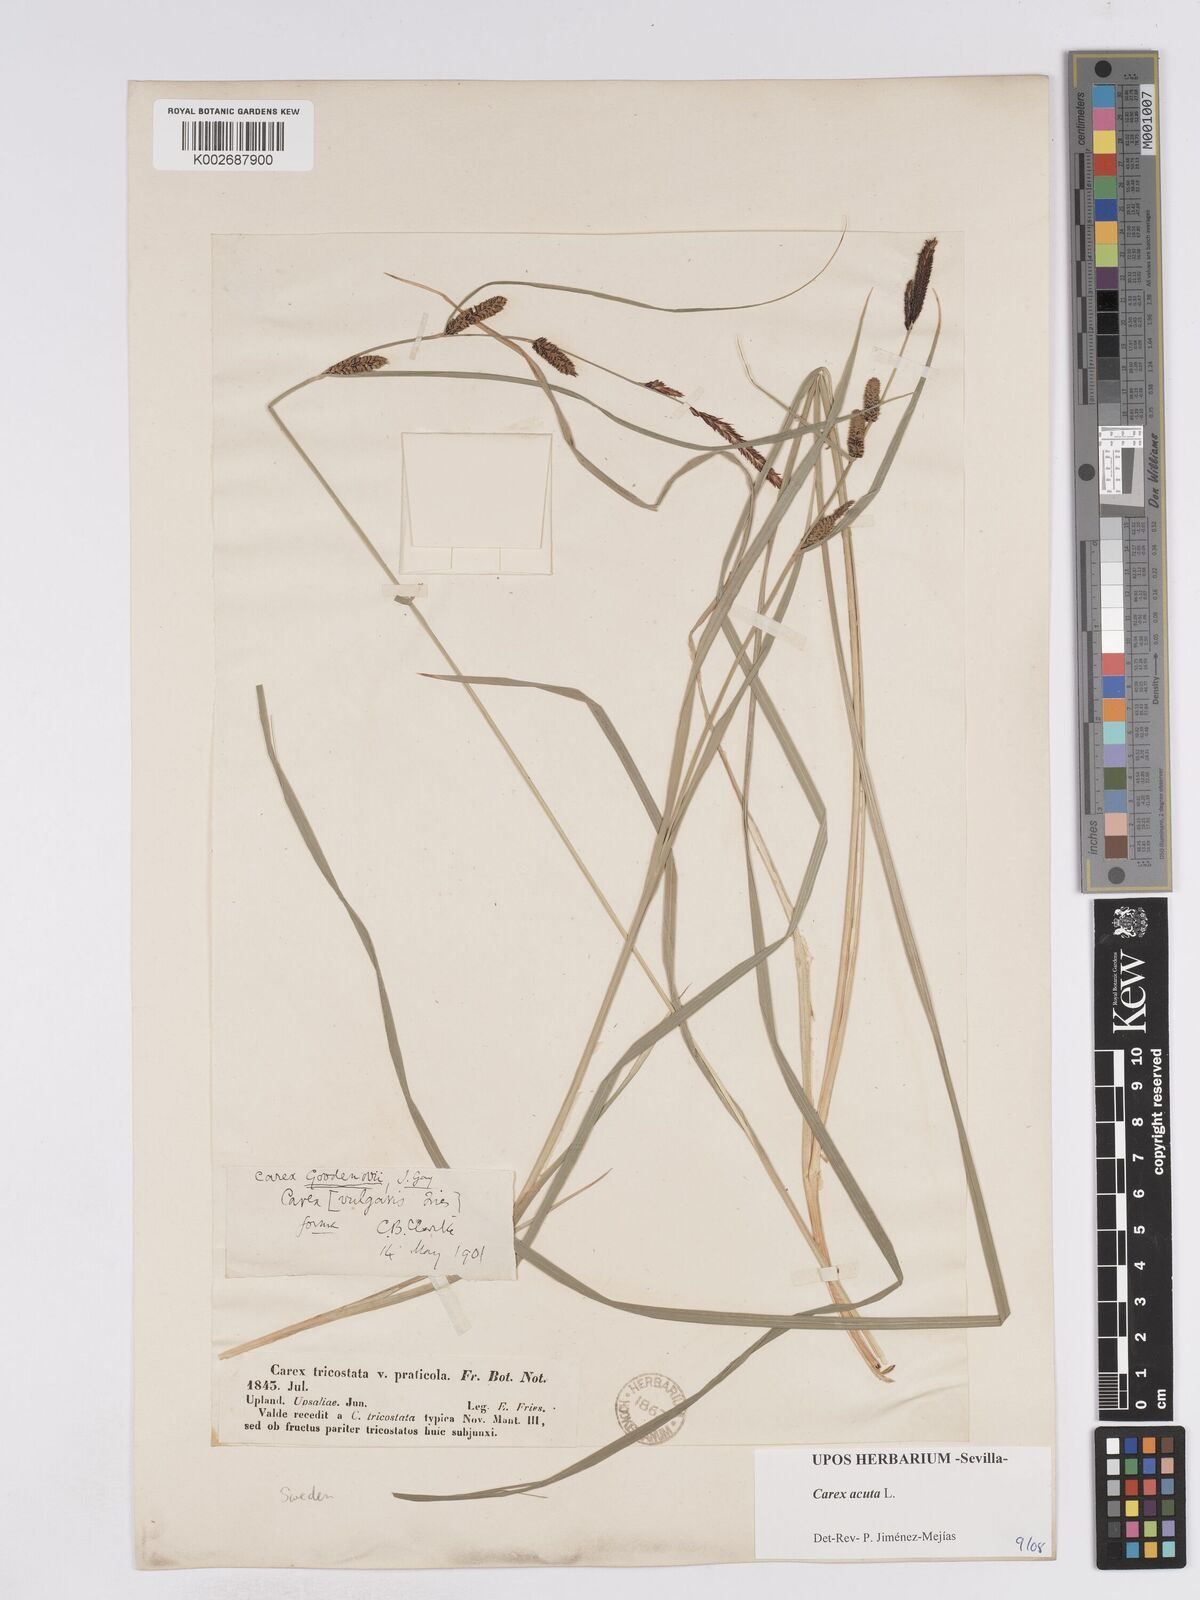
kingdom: Plantae
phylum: Tracheophyta
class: Liliopsida
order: Poales
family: Cyperaceae
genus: Carex
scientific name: Carex acuta
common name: Slender tufted-sedge
